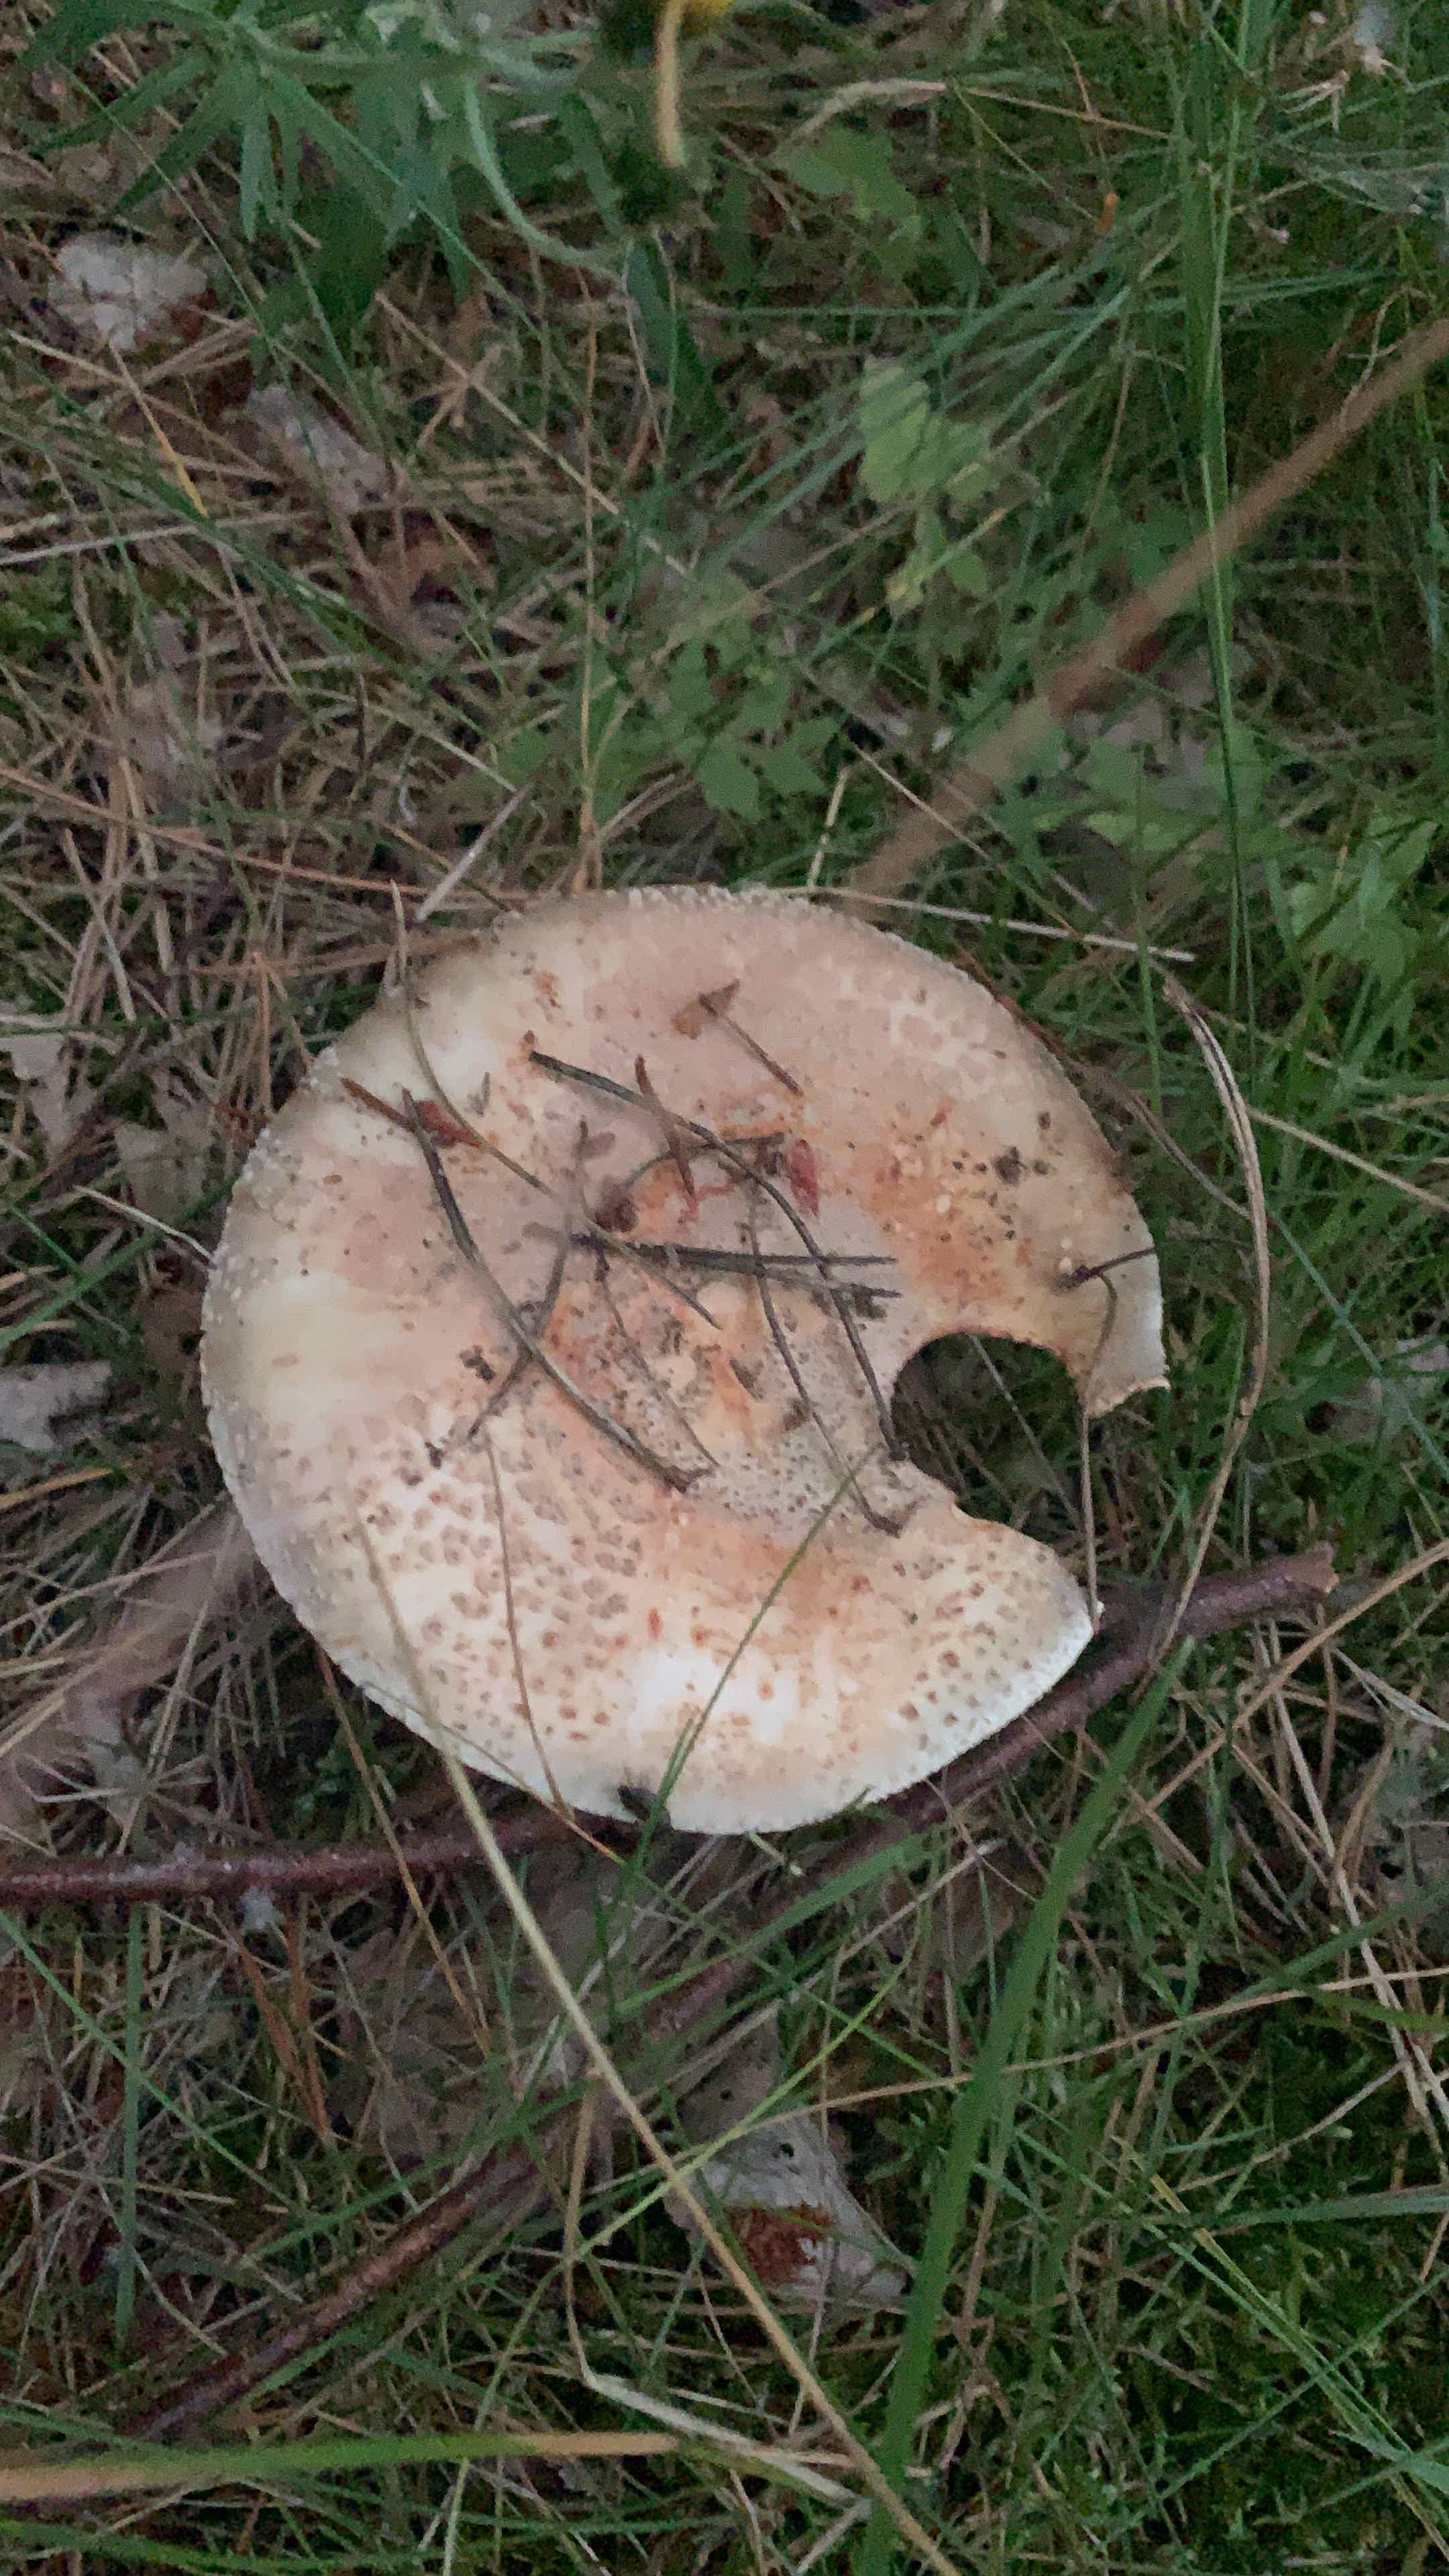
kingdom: Fungi
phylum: Basidiomycota
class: Agaricomycetes
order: Agaricales
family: Amanitaceae
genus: Amanita
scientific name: Amanita rubescens
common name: rødmende fluesvamp
